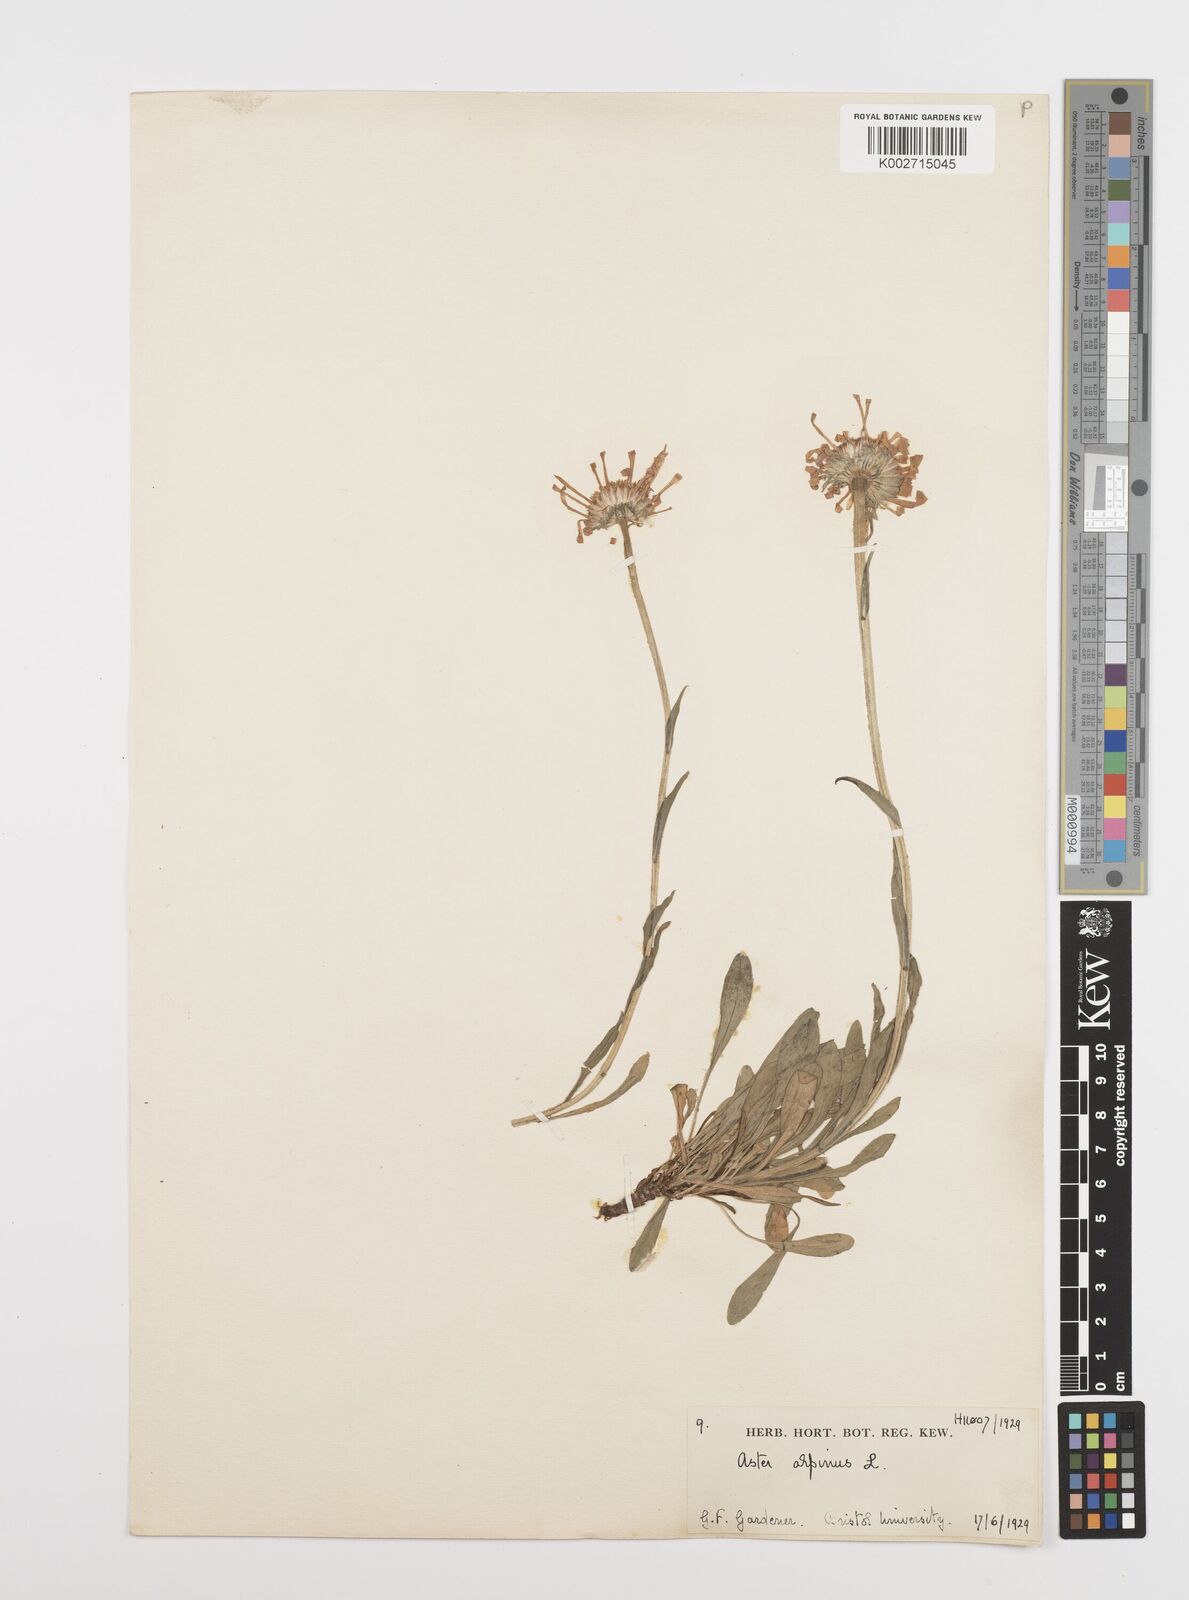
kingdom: Plantae
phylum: Tracheophyta
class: Magnoliopsida
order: Asterales
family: Asteraceae
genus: Aster
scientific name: Aster alpinus
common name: Alpine aster
